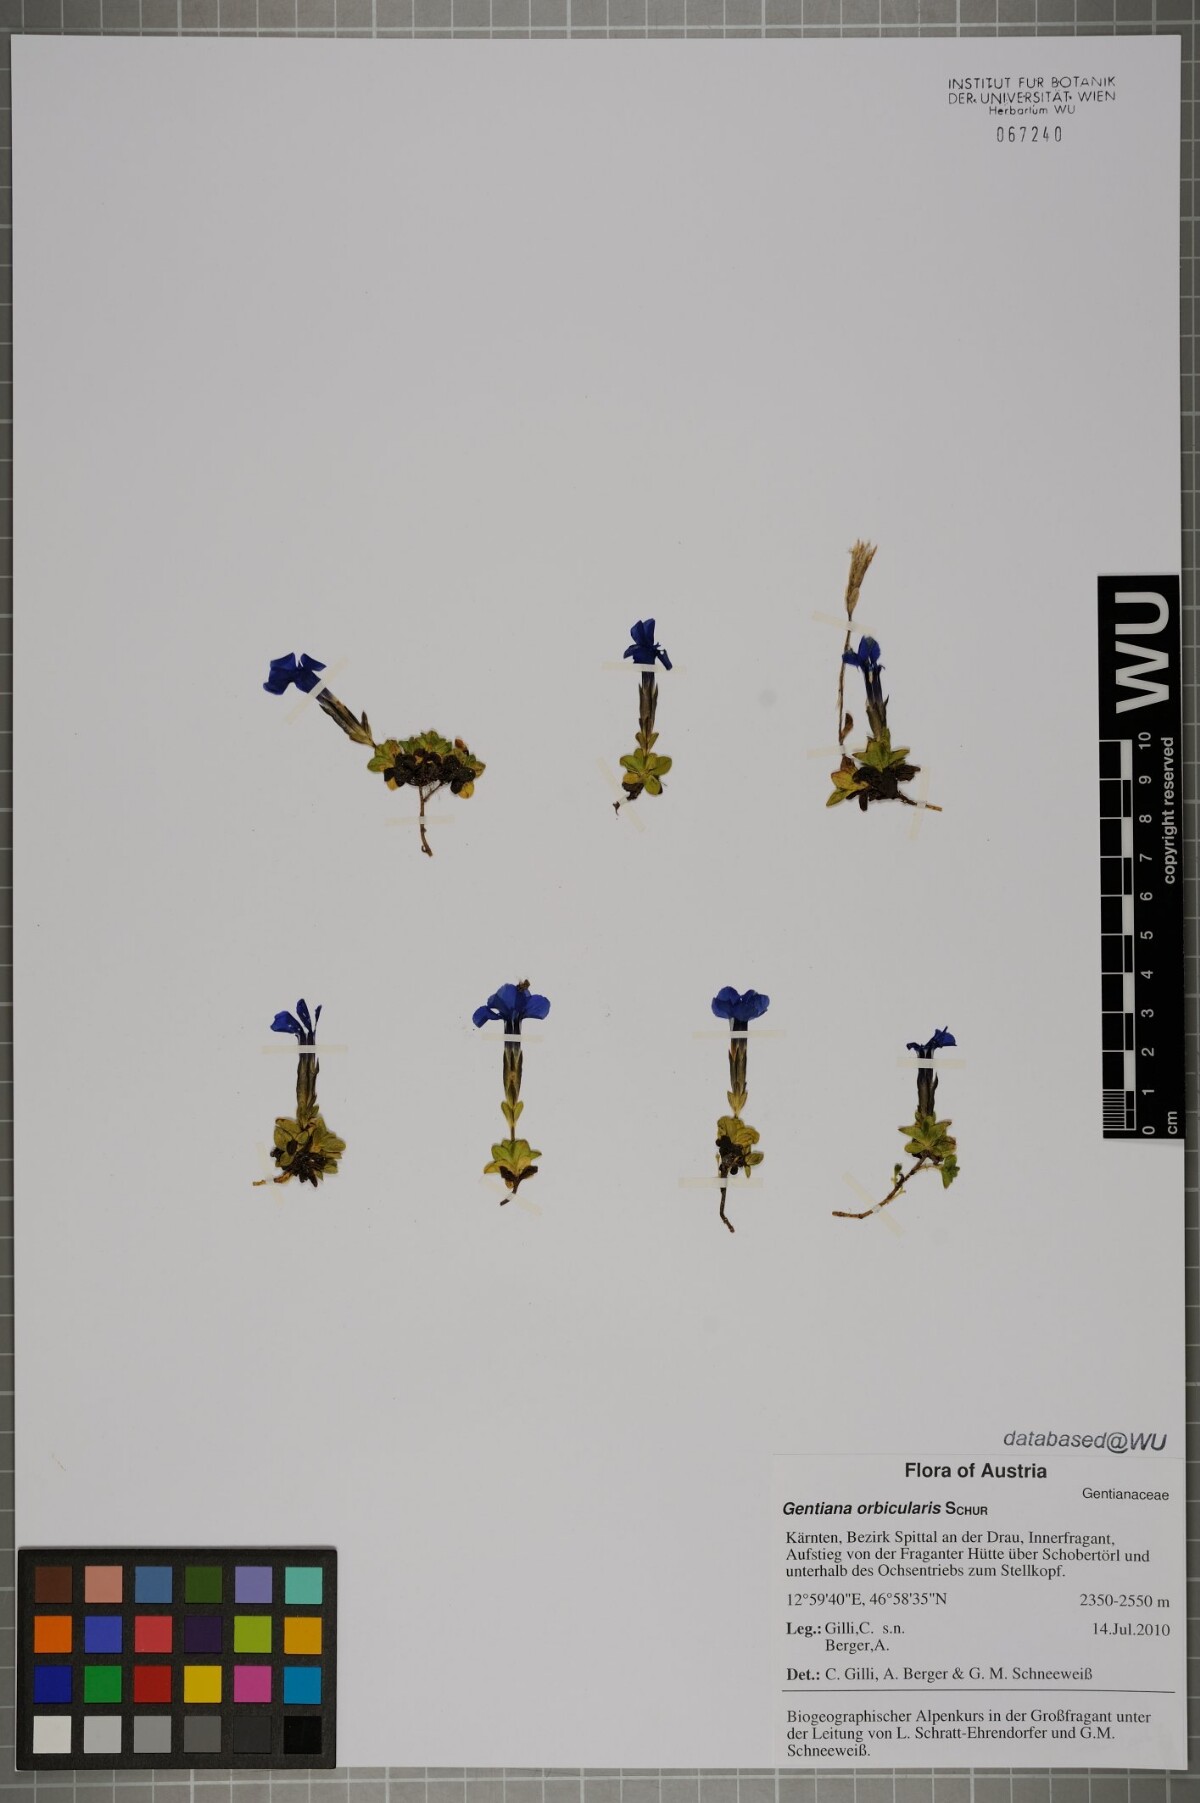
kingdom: Plantae
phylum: Tracheophyta
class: Magnoliopsida
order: Gentianales
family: Gentianaceae
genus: Gentiana
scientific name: Gentiana orbicularis
